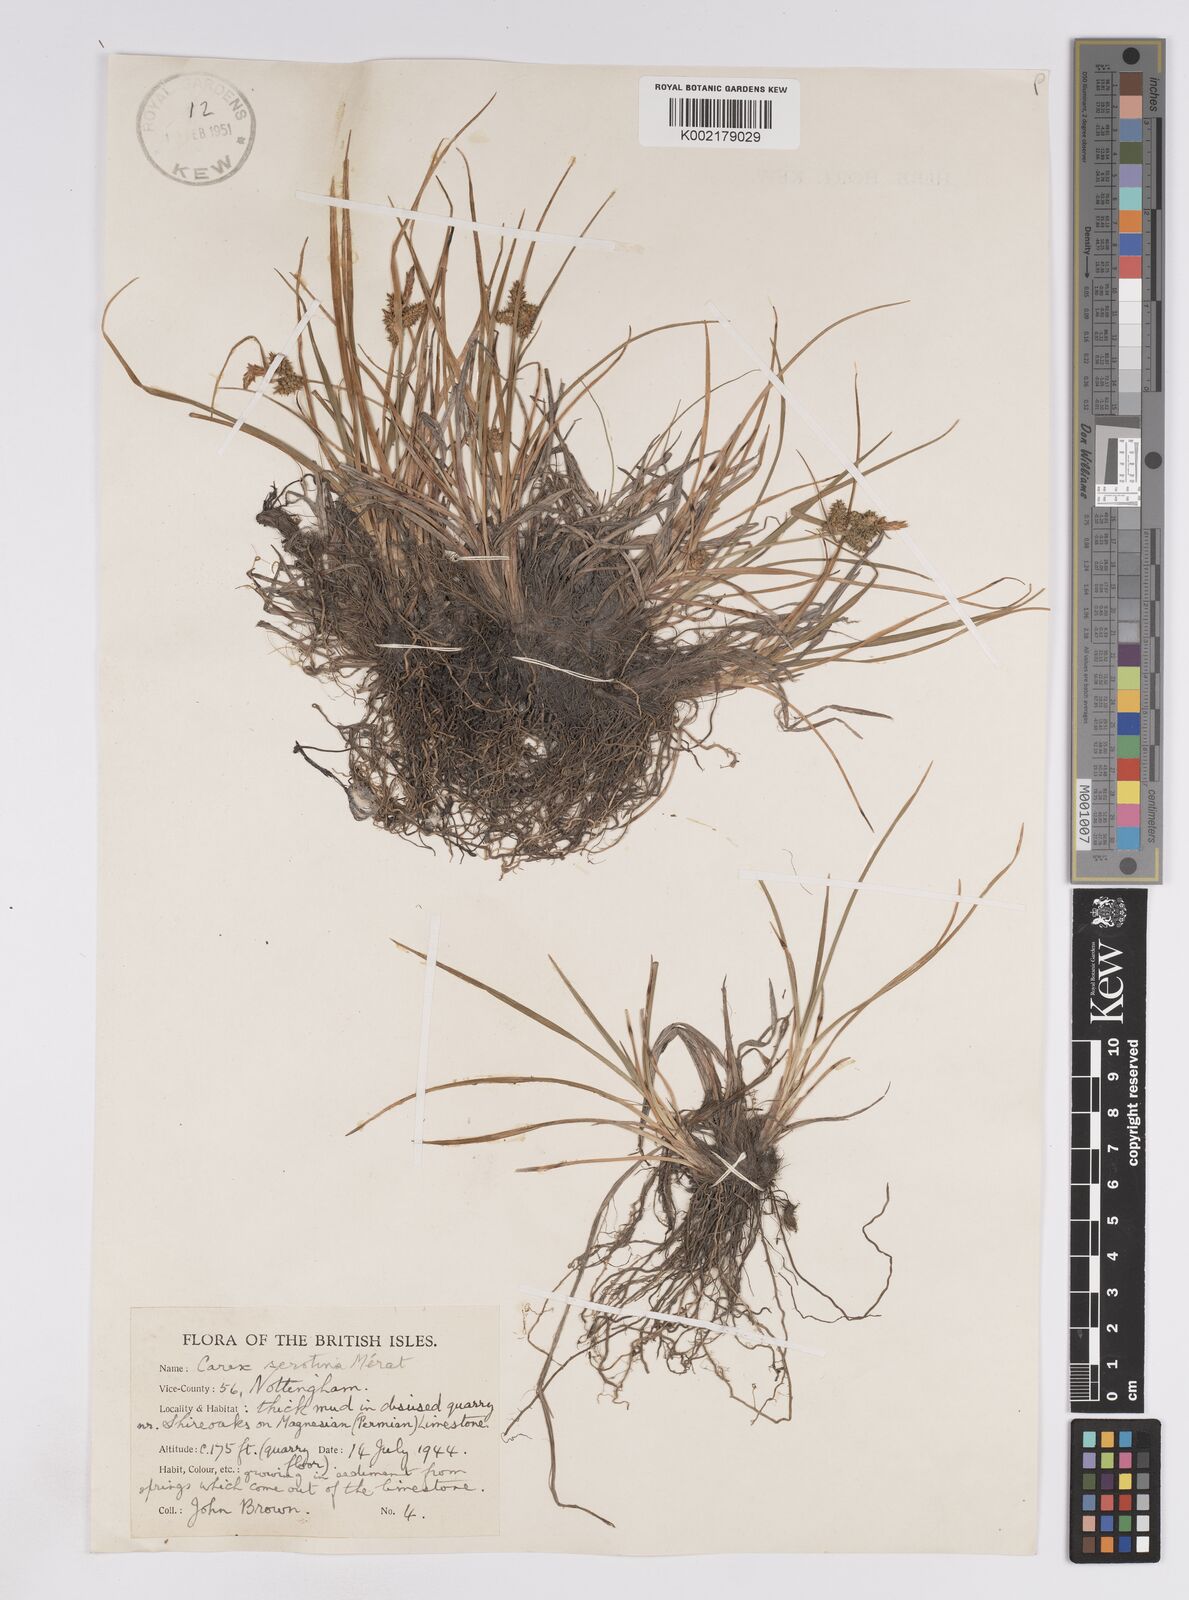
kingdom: Plantae
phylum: Tracheophyta
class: Liliopsida
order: Poales
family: Cyperaceae
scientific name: Cyperaceae
